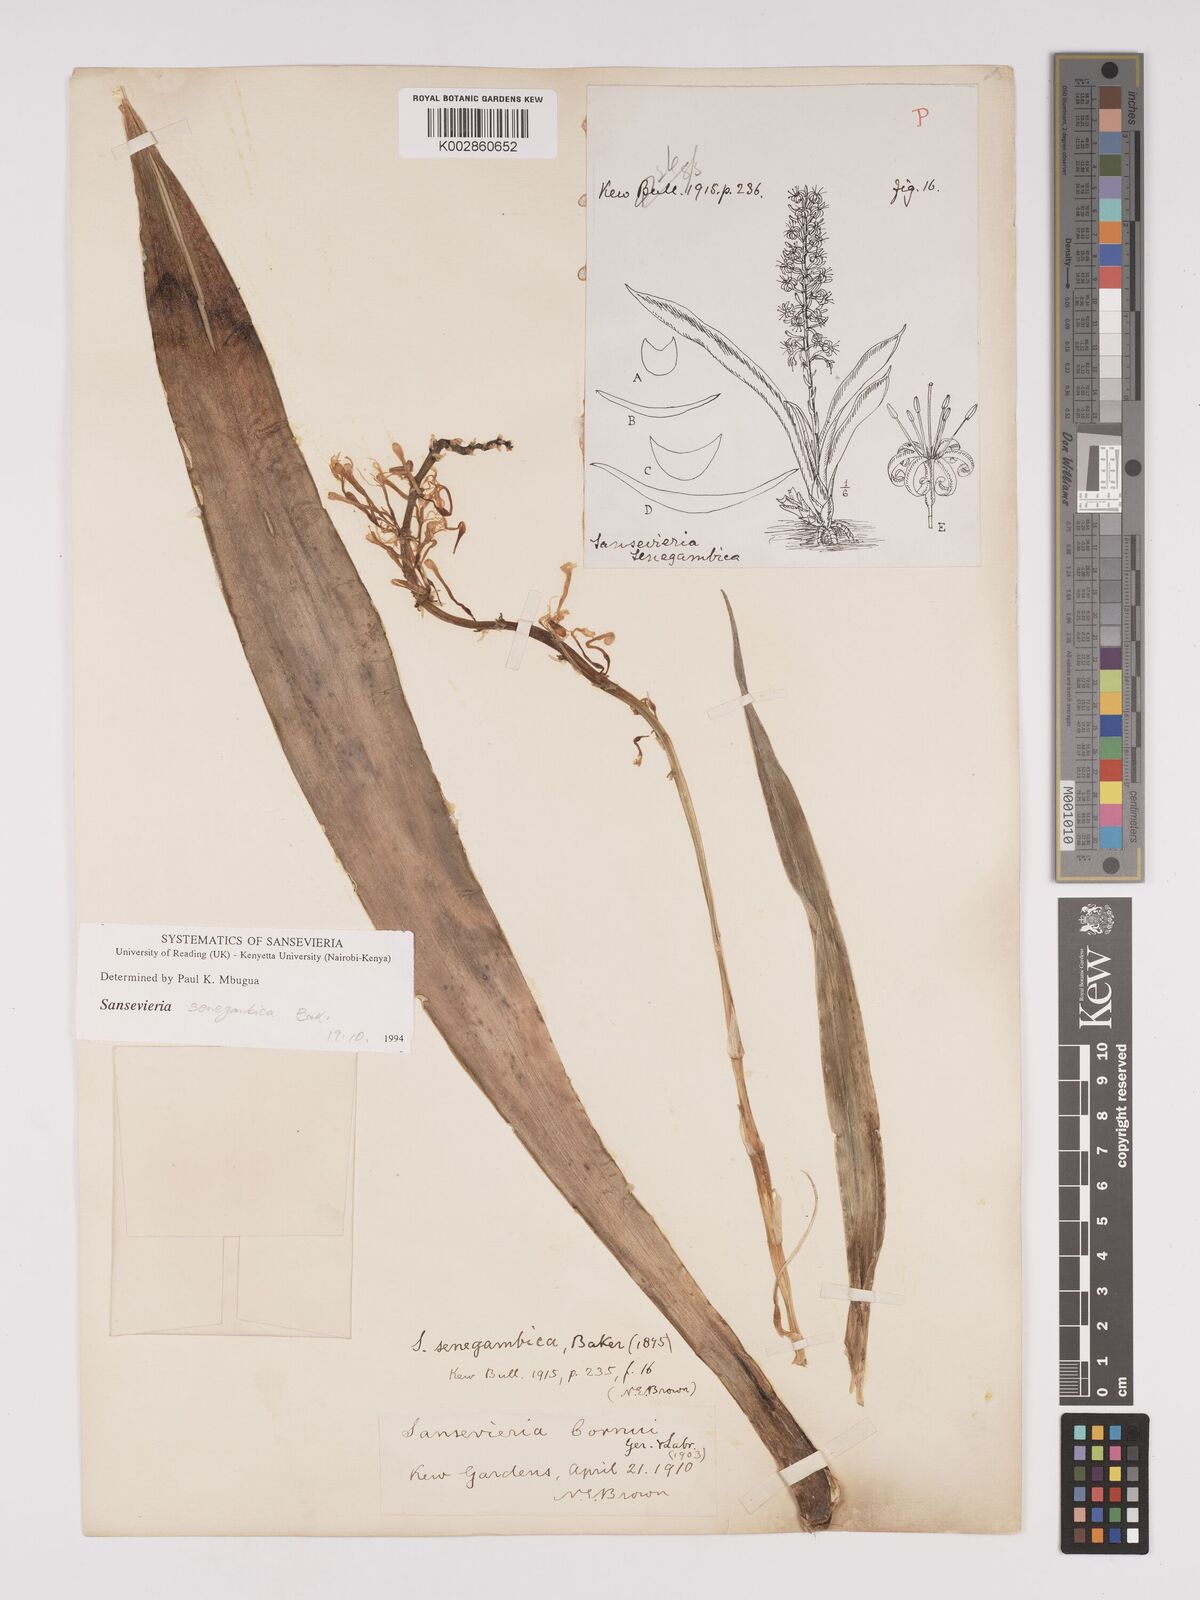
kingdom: Plantae
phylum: Tracheophyta
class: Liliopsida
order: Asparagales
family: Asparagaceae
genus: Dracaena
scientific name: Dracaena senegambica
